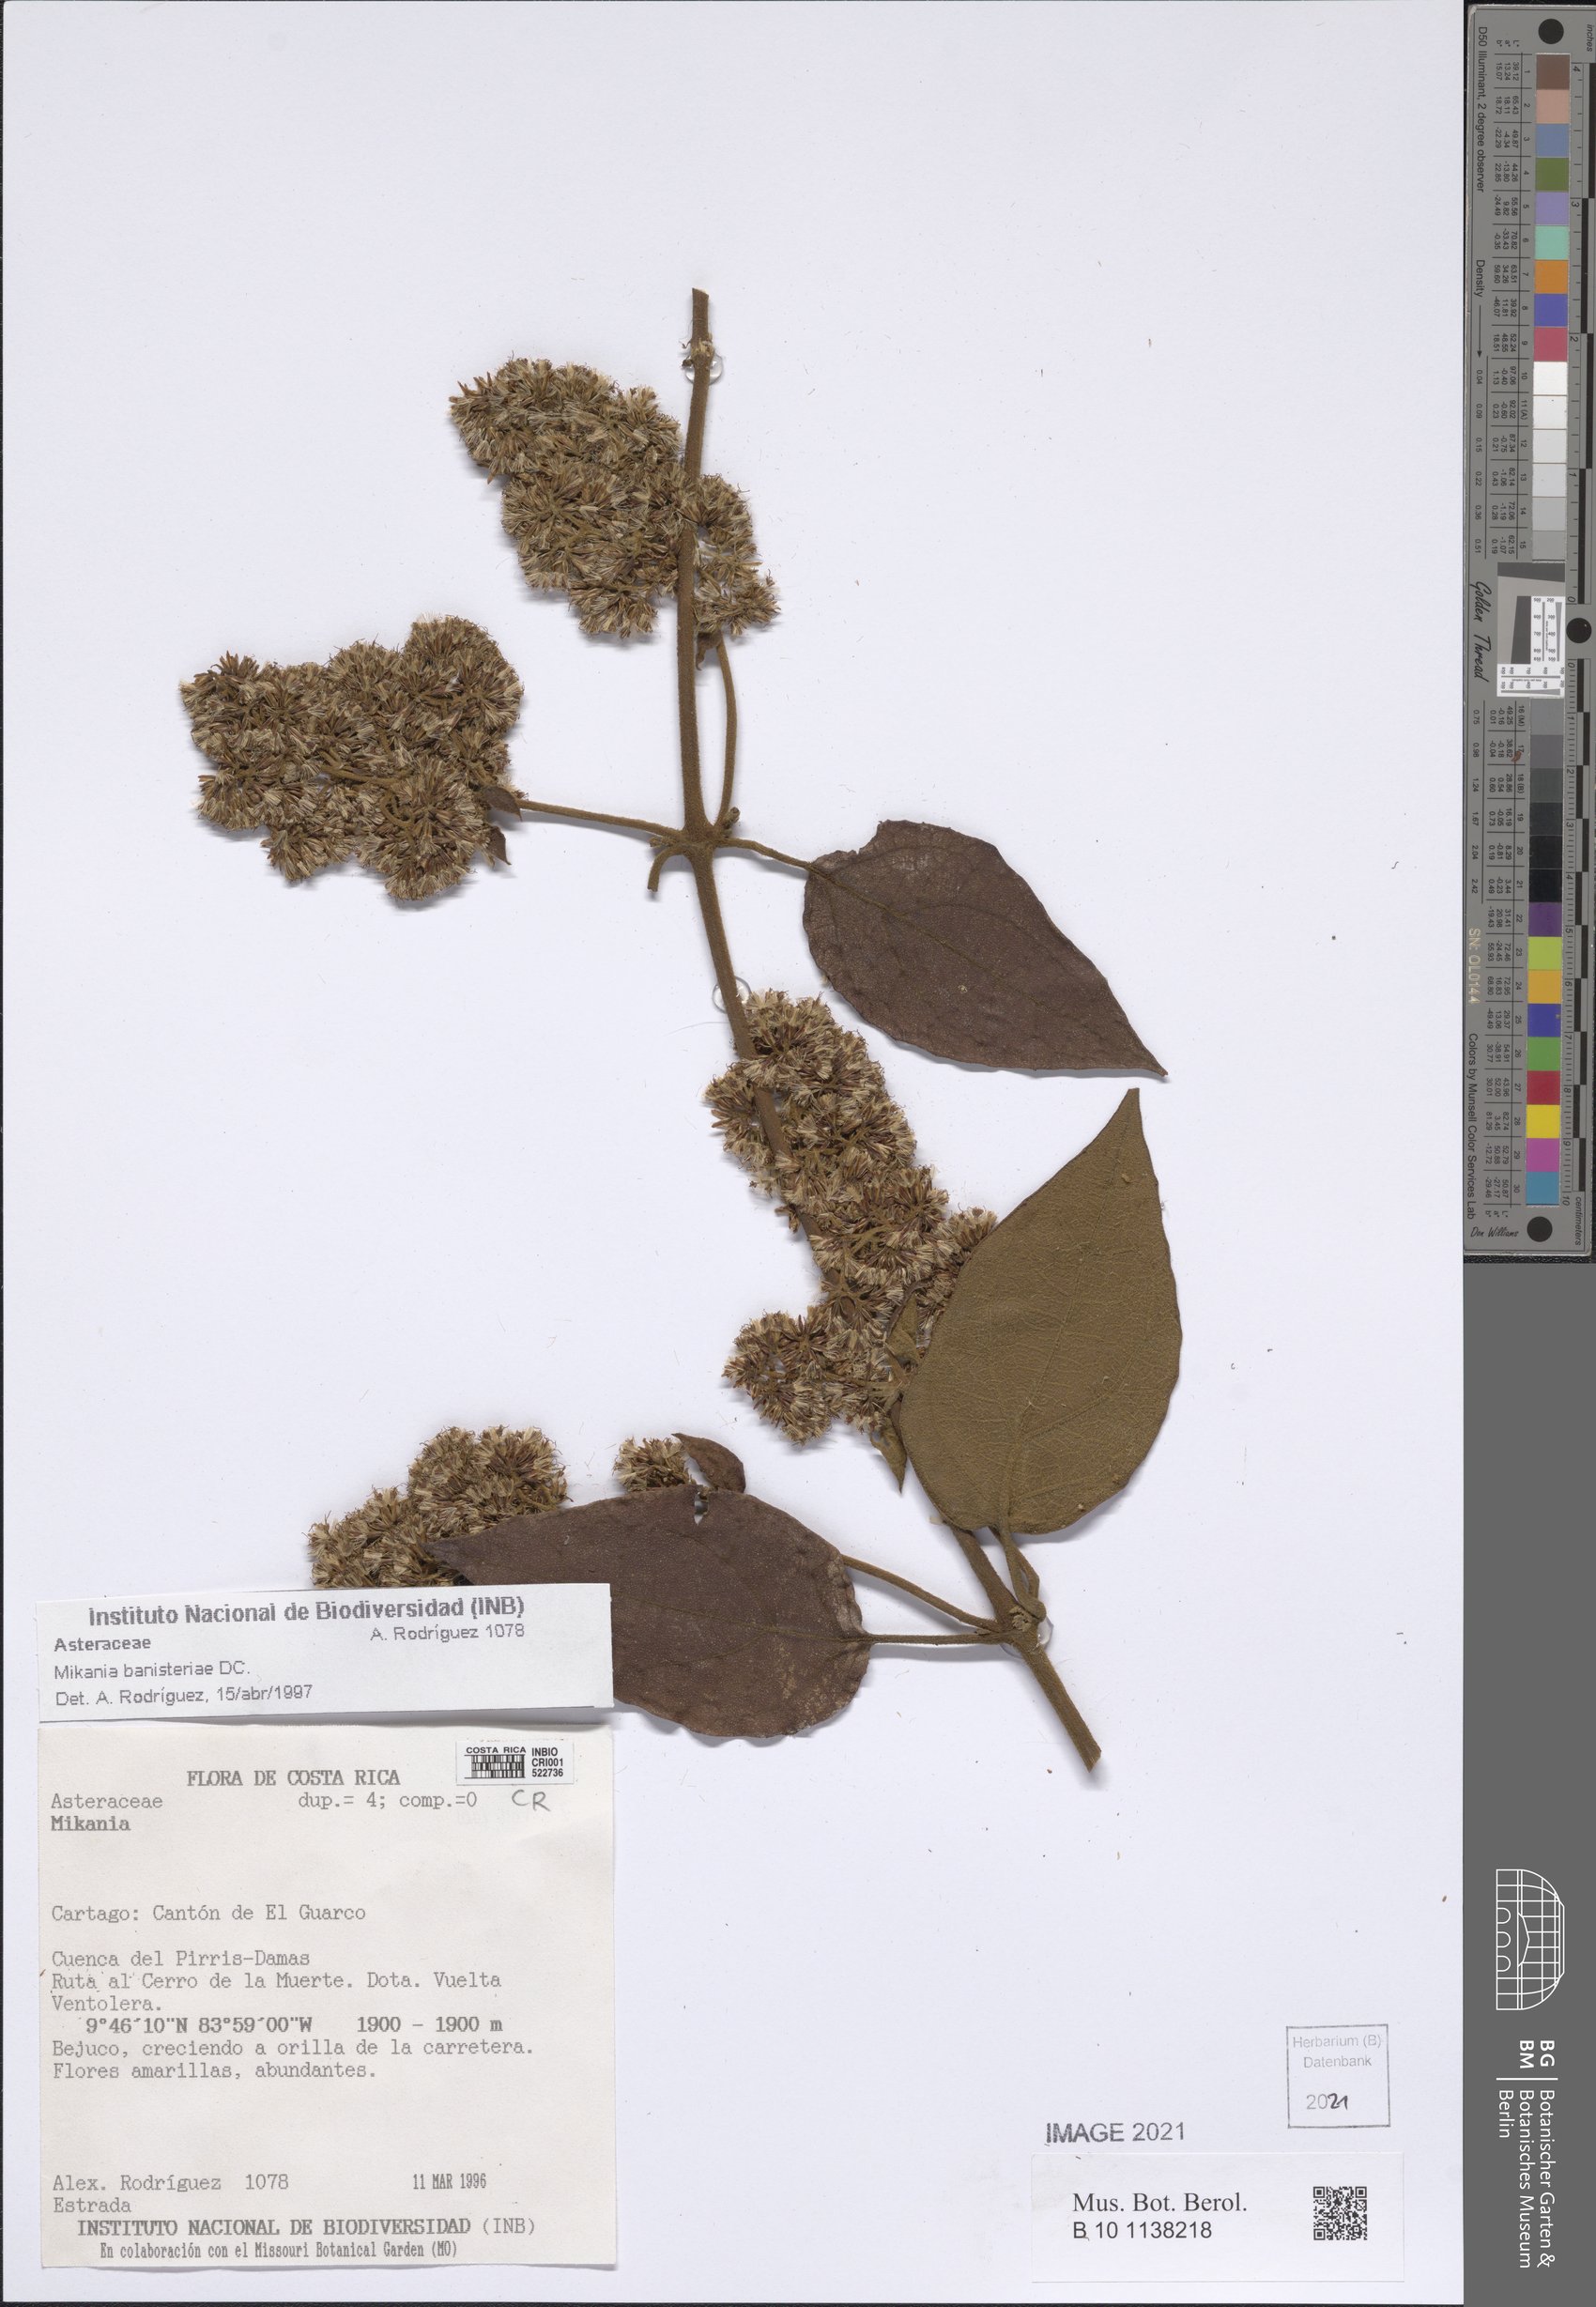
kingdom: Plantae
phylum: Tracheophyta
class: Magnoliopsida
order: Asterales
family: Asteraceae
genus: Mikania
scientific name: Mikania banisteriae
